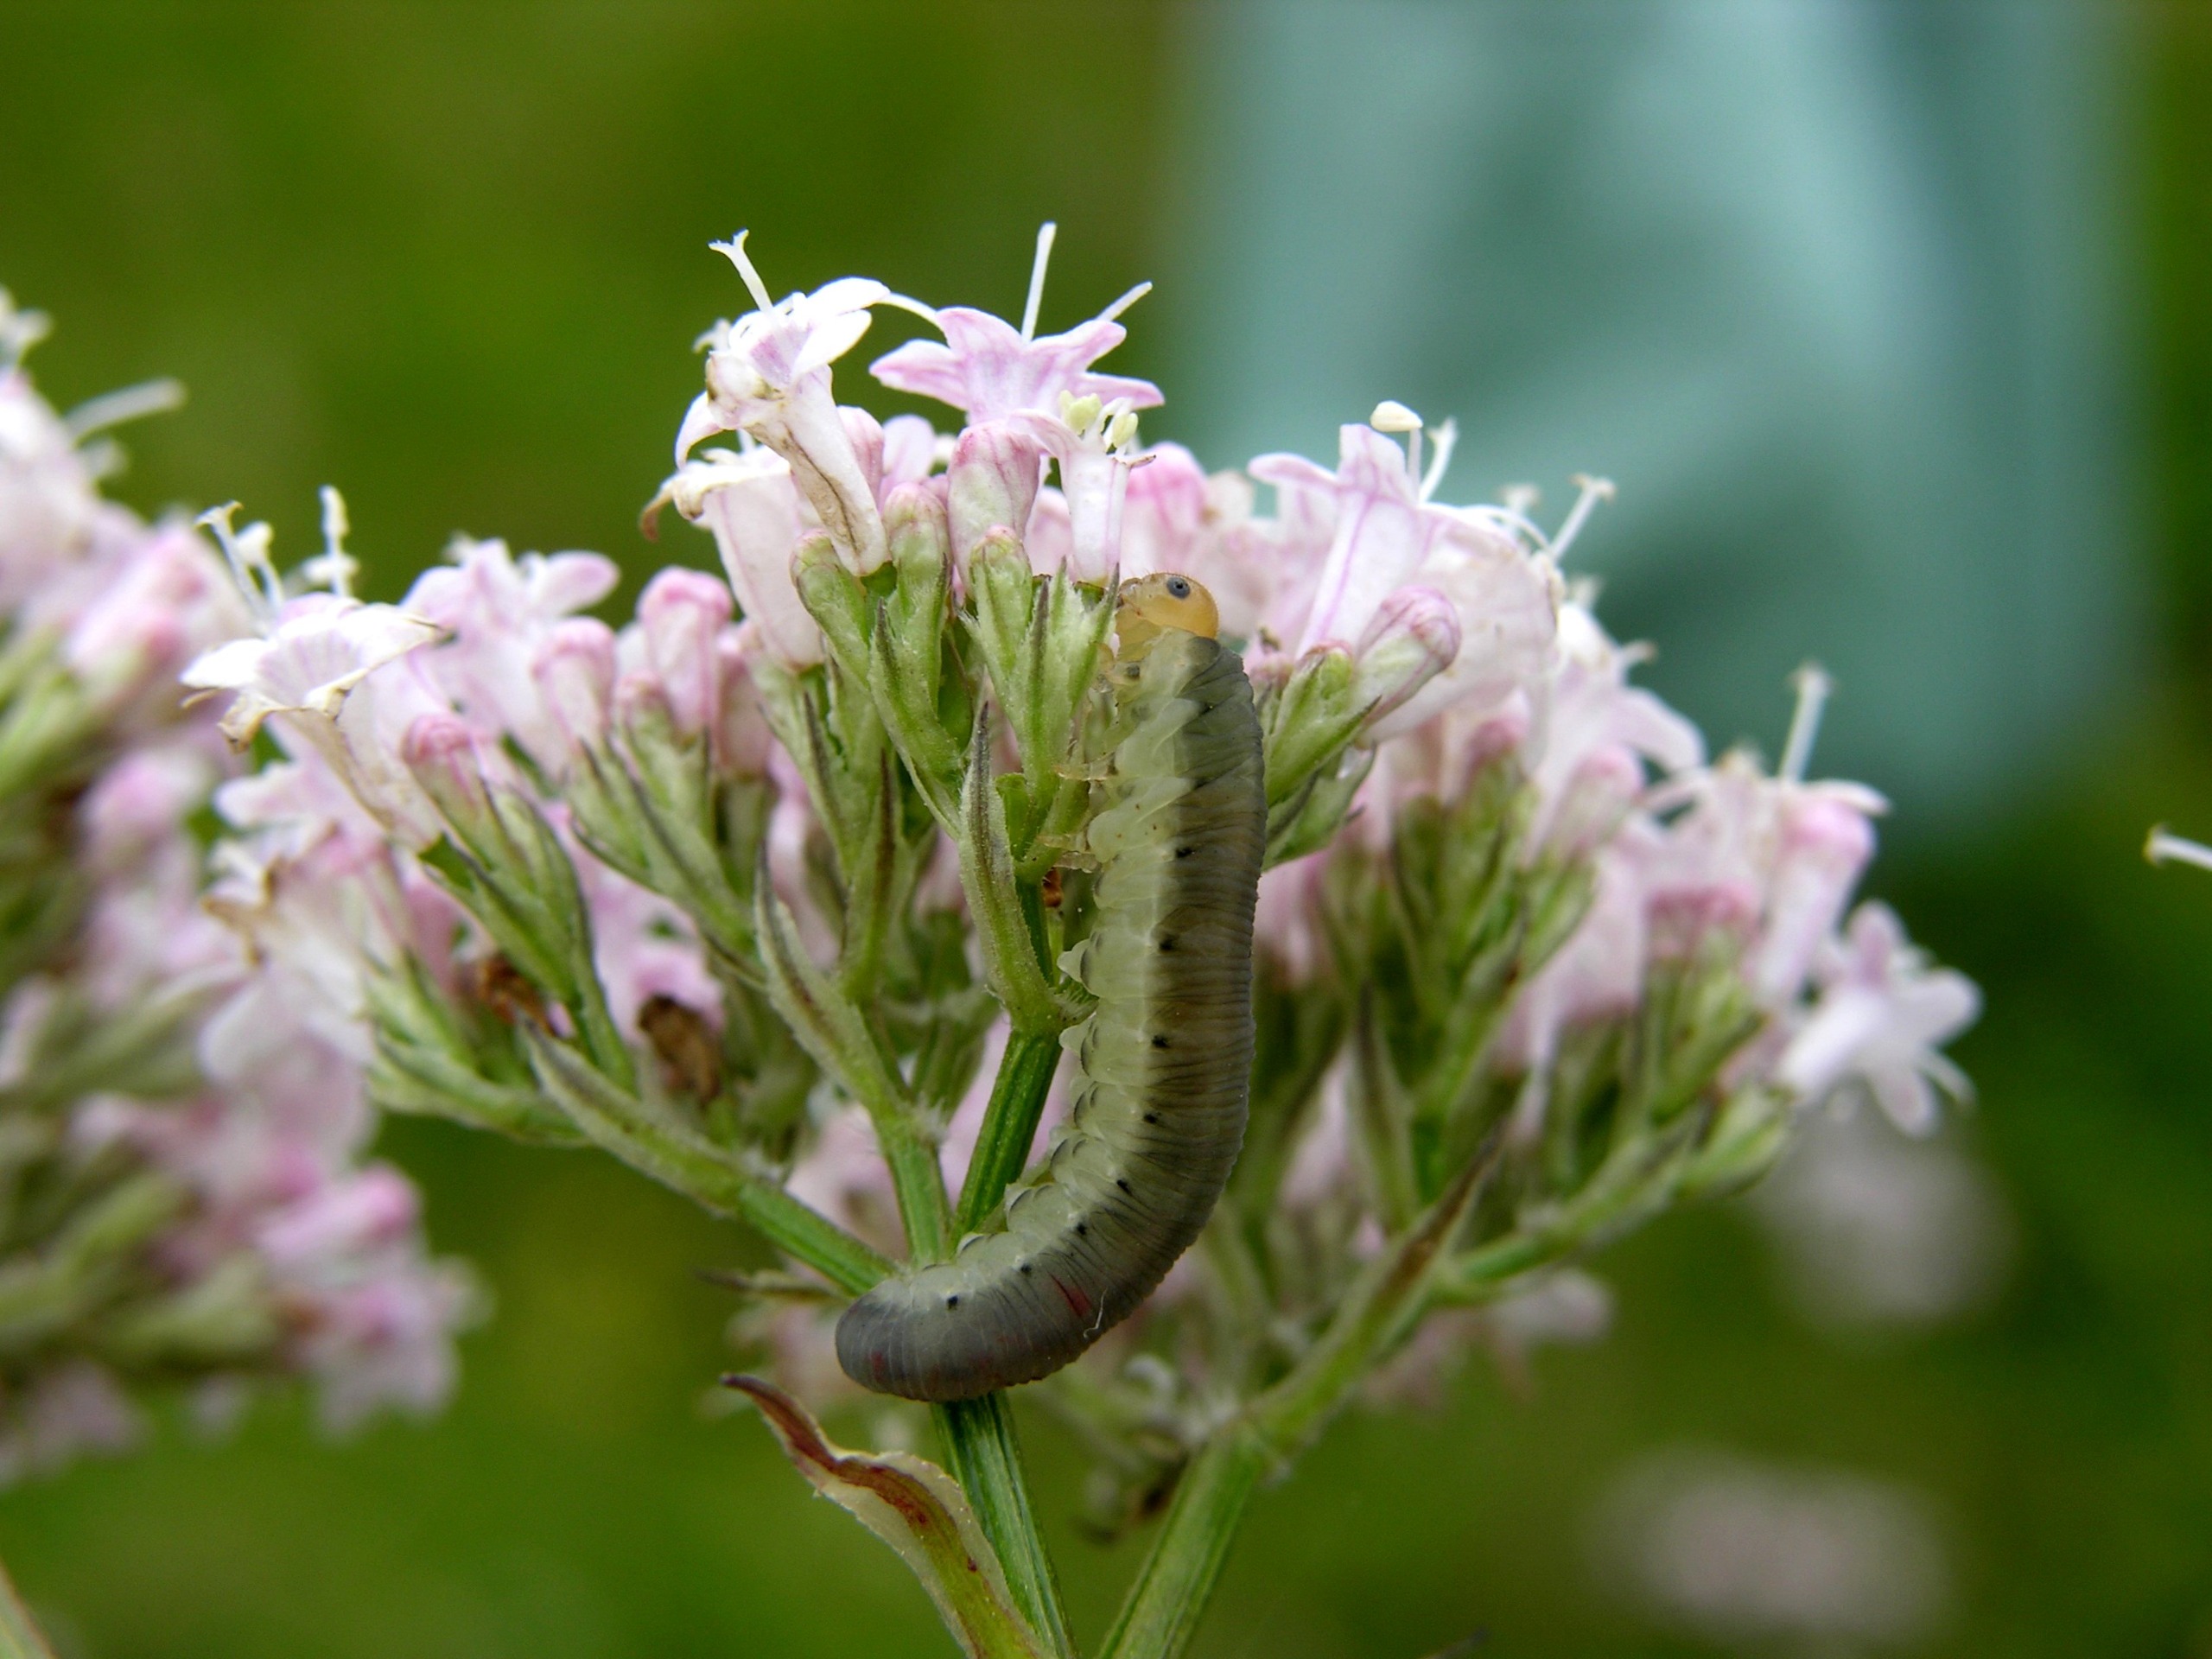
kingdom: Animalia
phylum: Arthropoda
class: Insecta
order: Hymenoptera
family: Tenthredinidae
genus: Macrophya
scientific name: Macrophya albicincta
